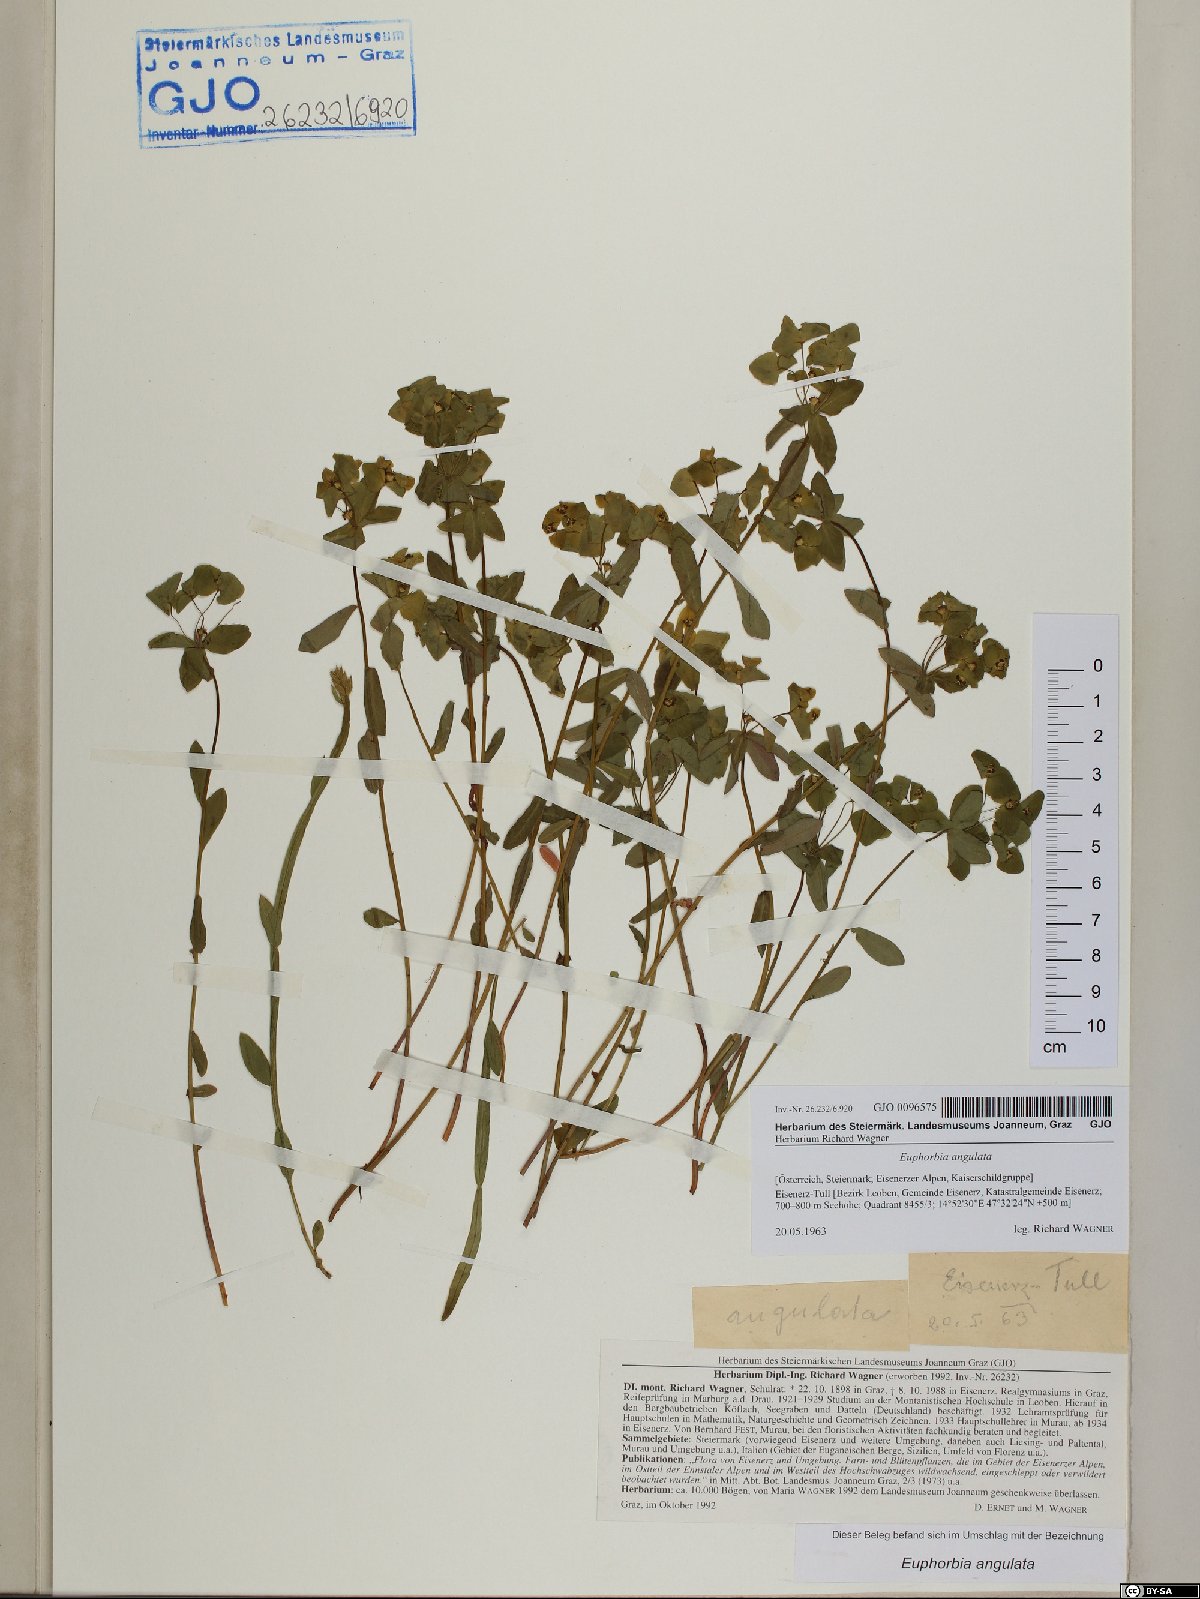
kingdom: Plantae
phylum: Tracheophyta
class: Magnoliopsida
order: Malpighiales
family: Euphorbiaceae
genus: Euphorbia
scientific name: Euphorbia angulata
